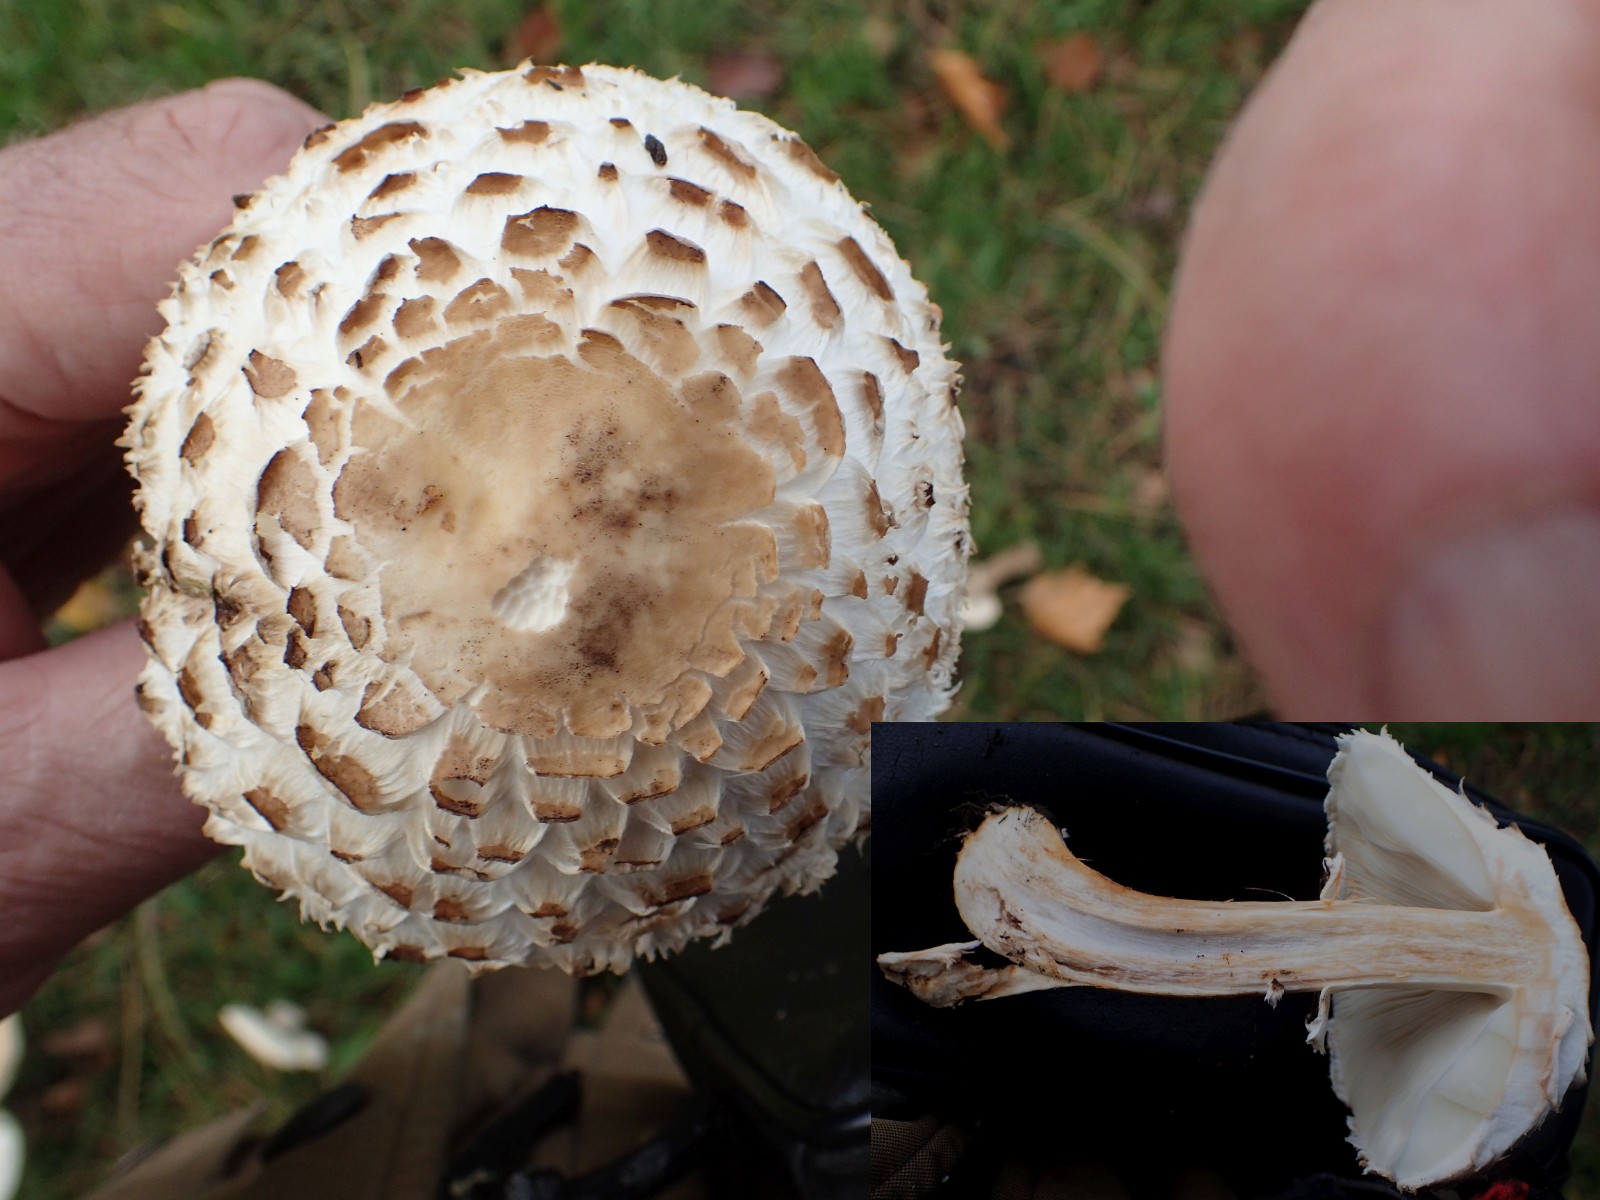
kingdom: Fungi
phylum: Basidiomycota
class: Agaricomycetes
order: Agaricales
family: Agaricaceae
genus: Chlorophyllum
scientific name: Chlorophyllum rhacodes
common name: ægte rabarberhat
